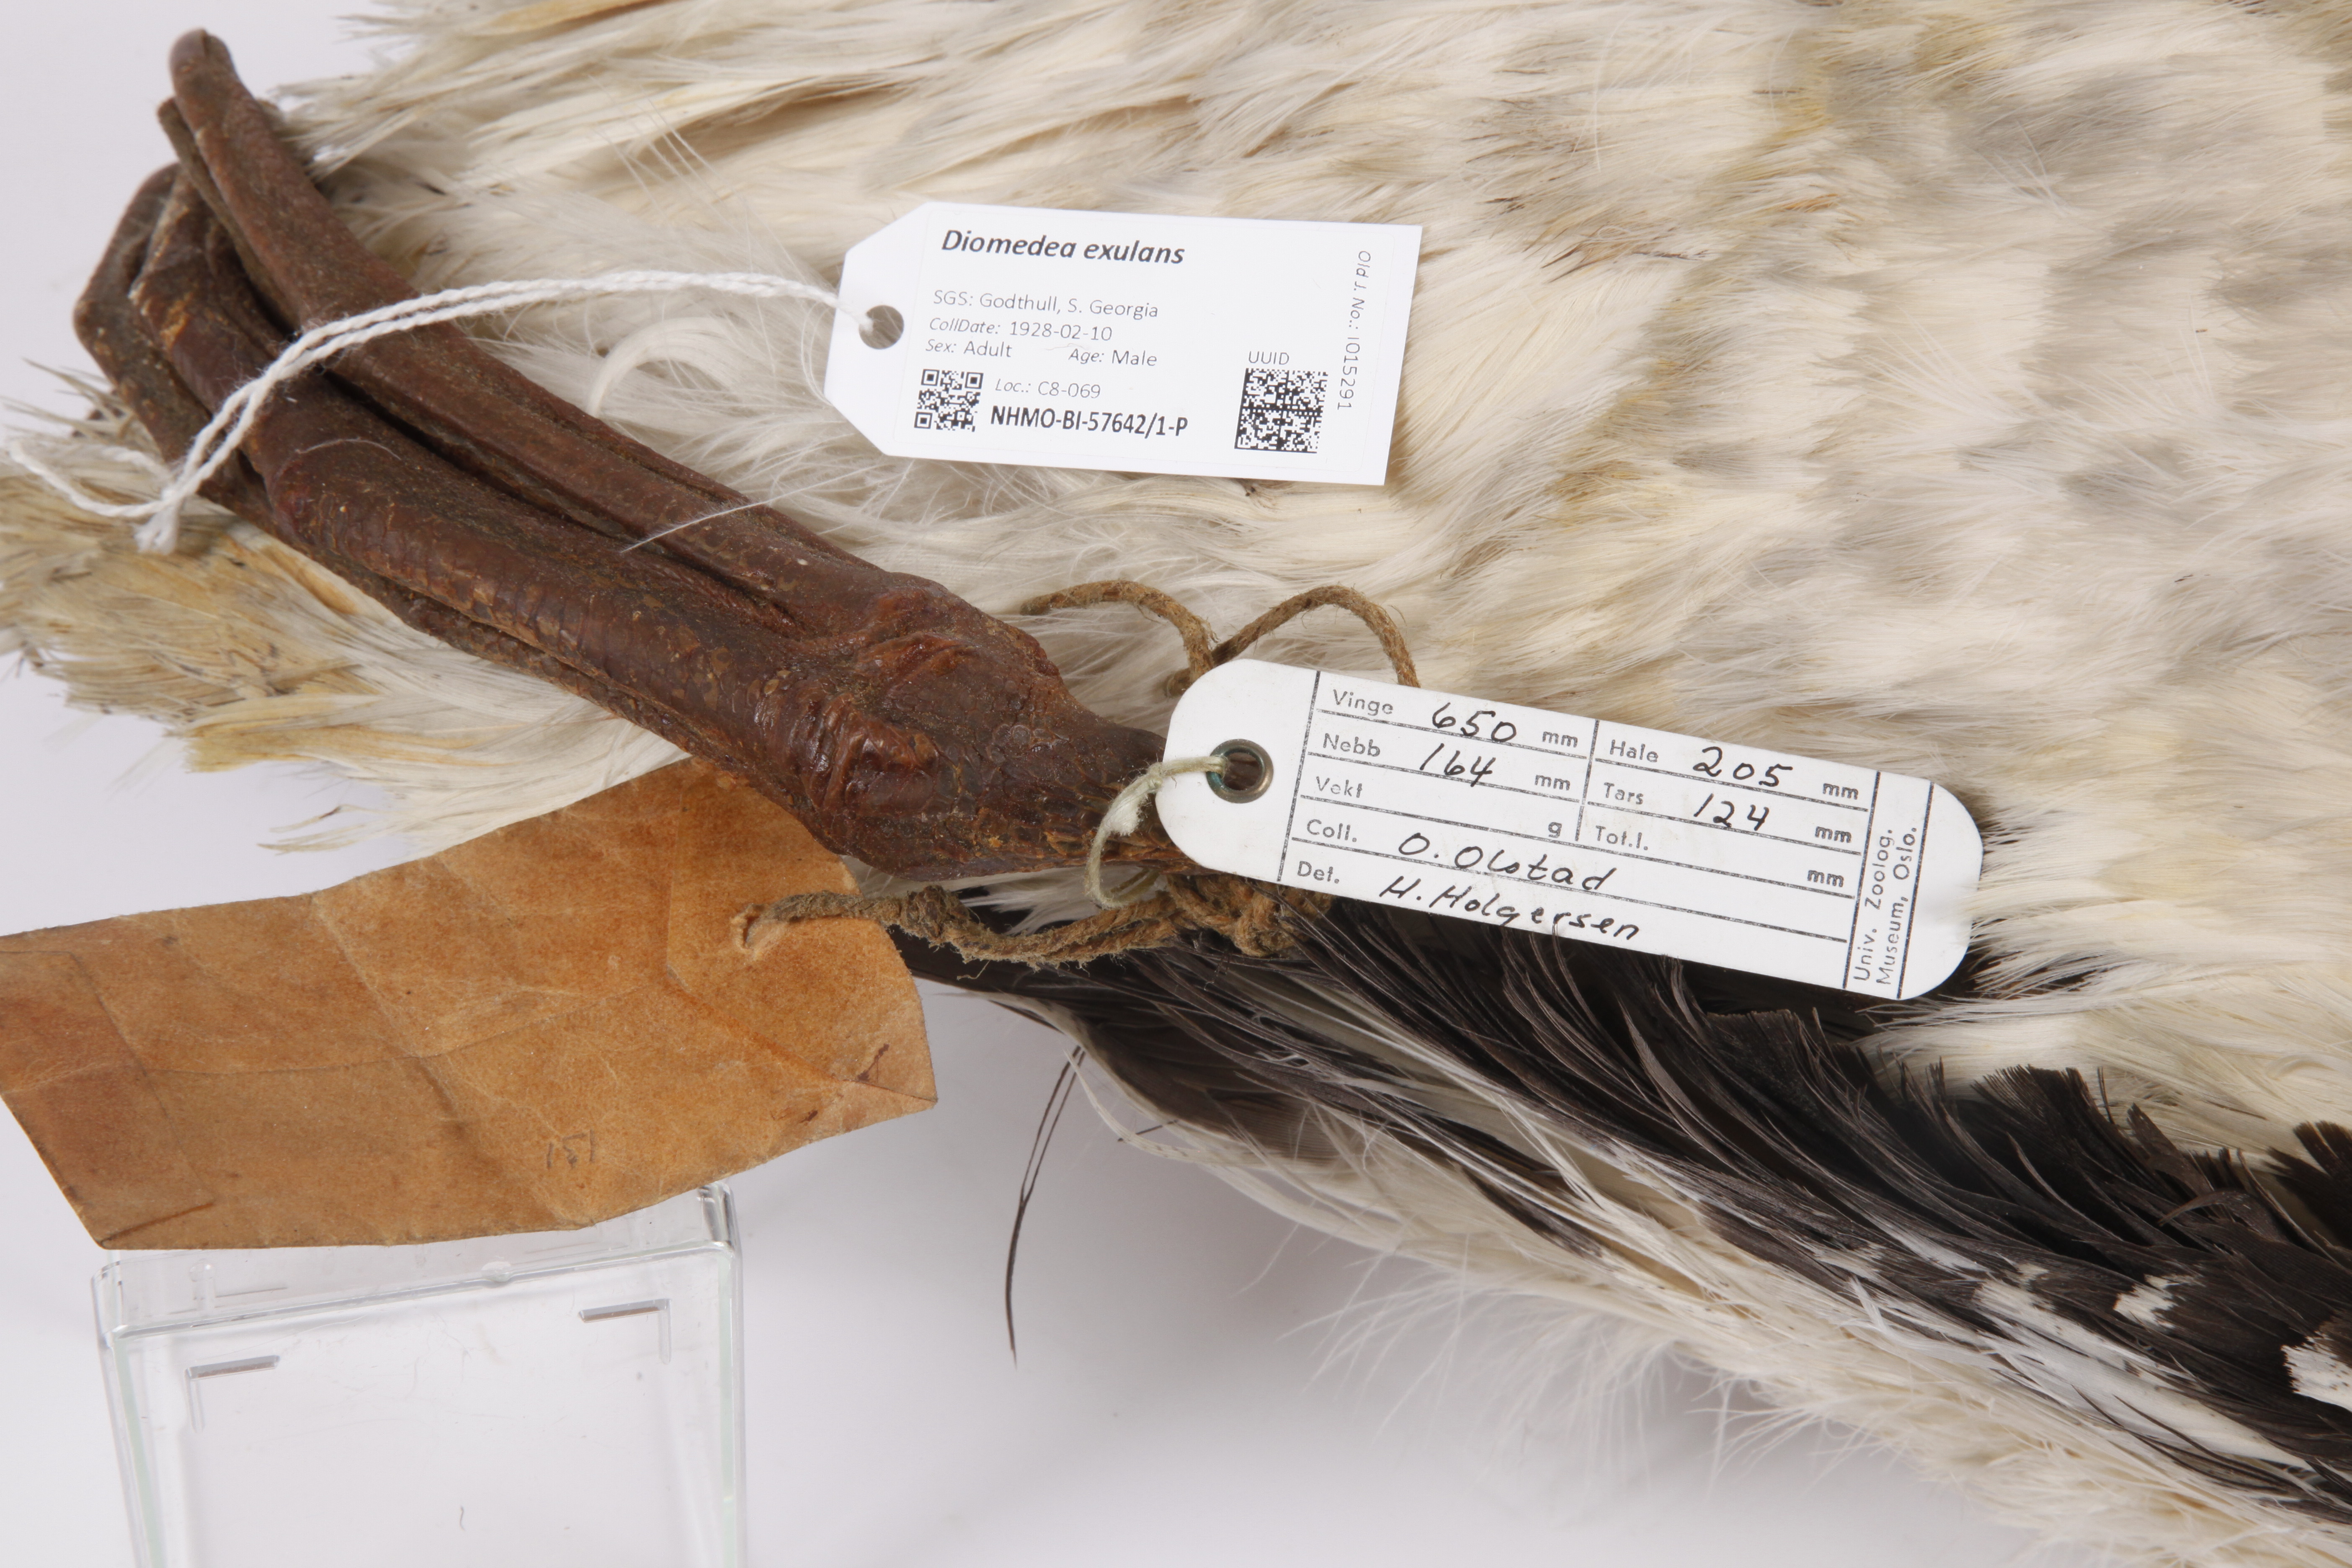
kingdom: Animalia
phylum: Chordata
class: Aves
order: Procellariiformes
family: Diomedeidae
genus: Diomedea
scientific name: Diomedea exulans
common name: Wandering albatross
